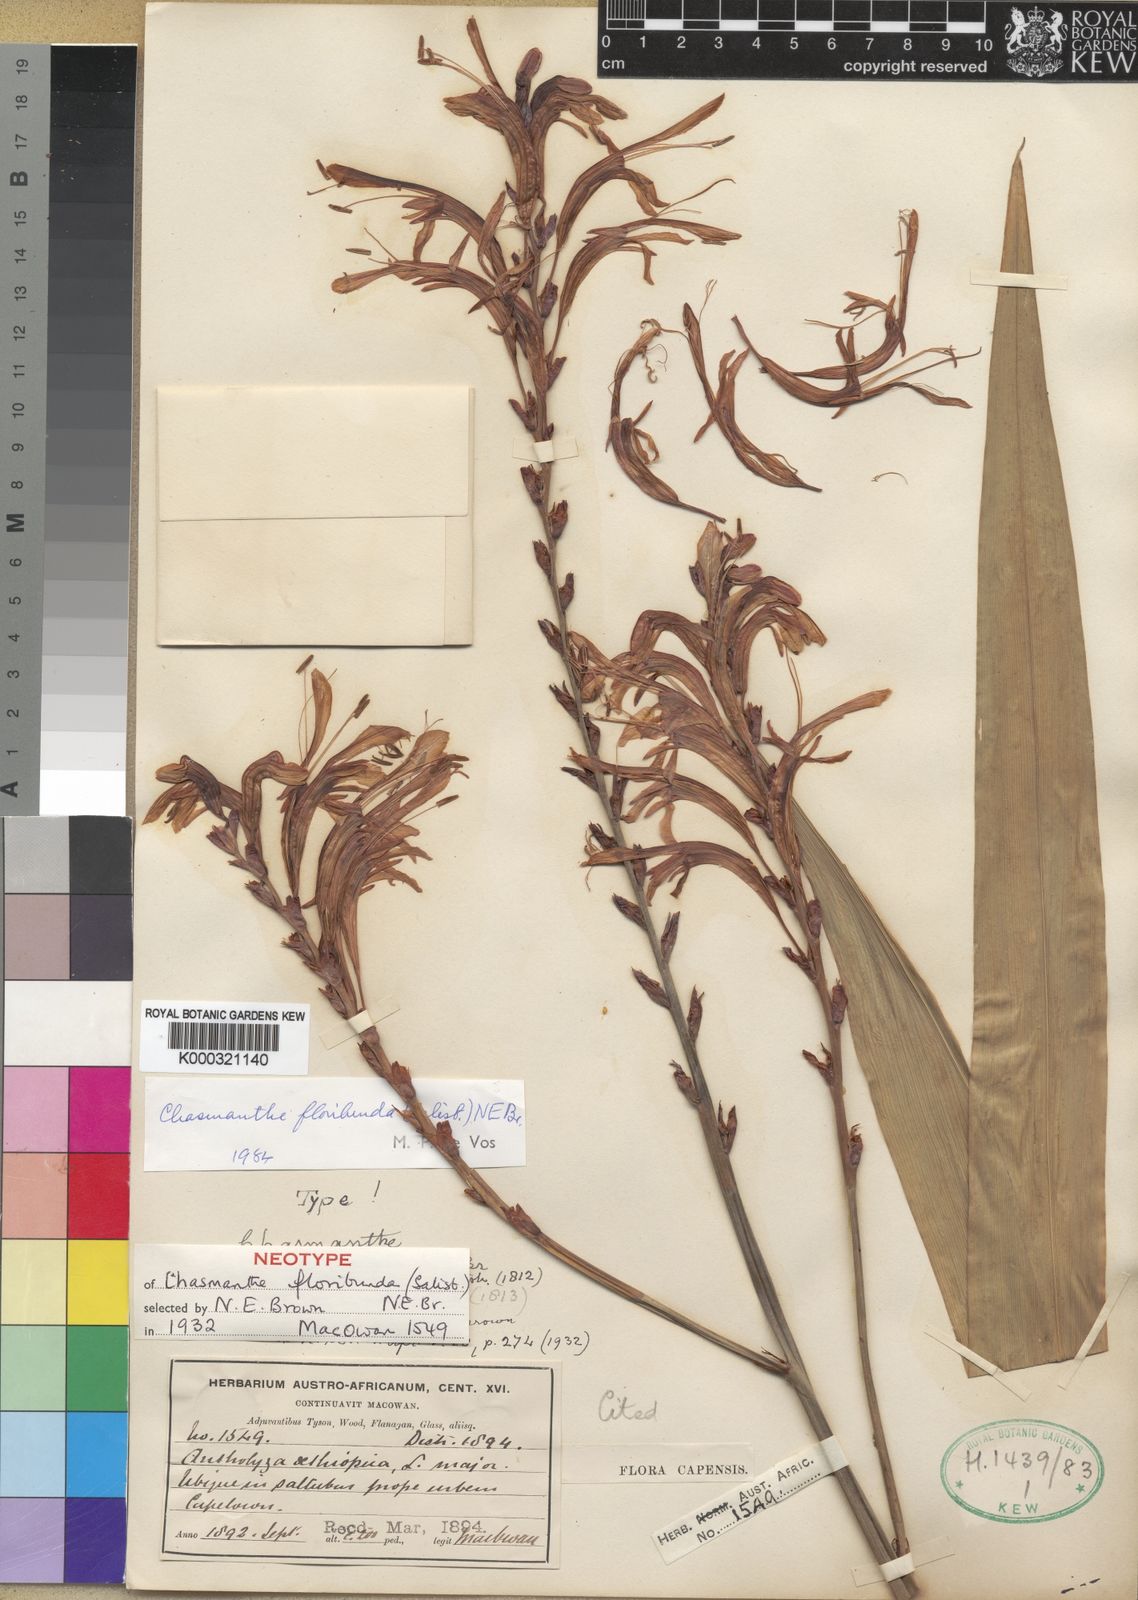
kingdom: Plantae
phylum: Tracheophyta
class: Liliopsida
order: Asparagales
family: Iridaceae
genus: Chasmanthe
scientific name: Chasmanthe floribunda
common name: African cornflag
